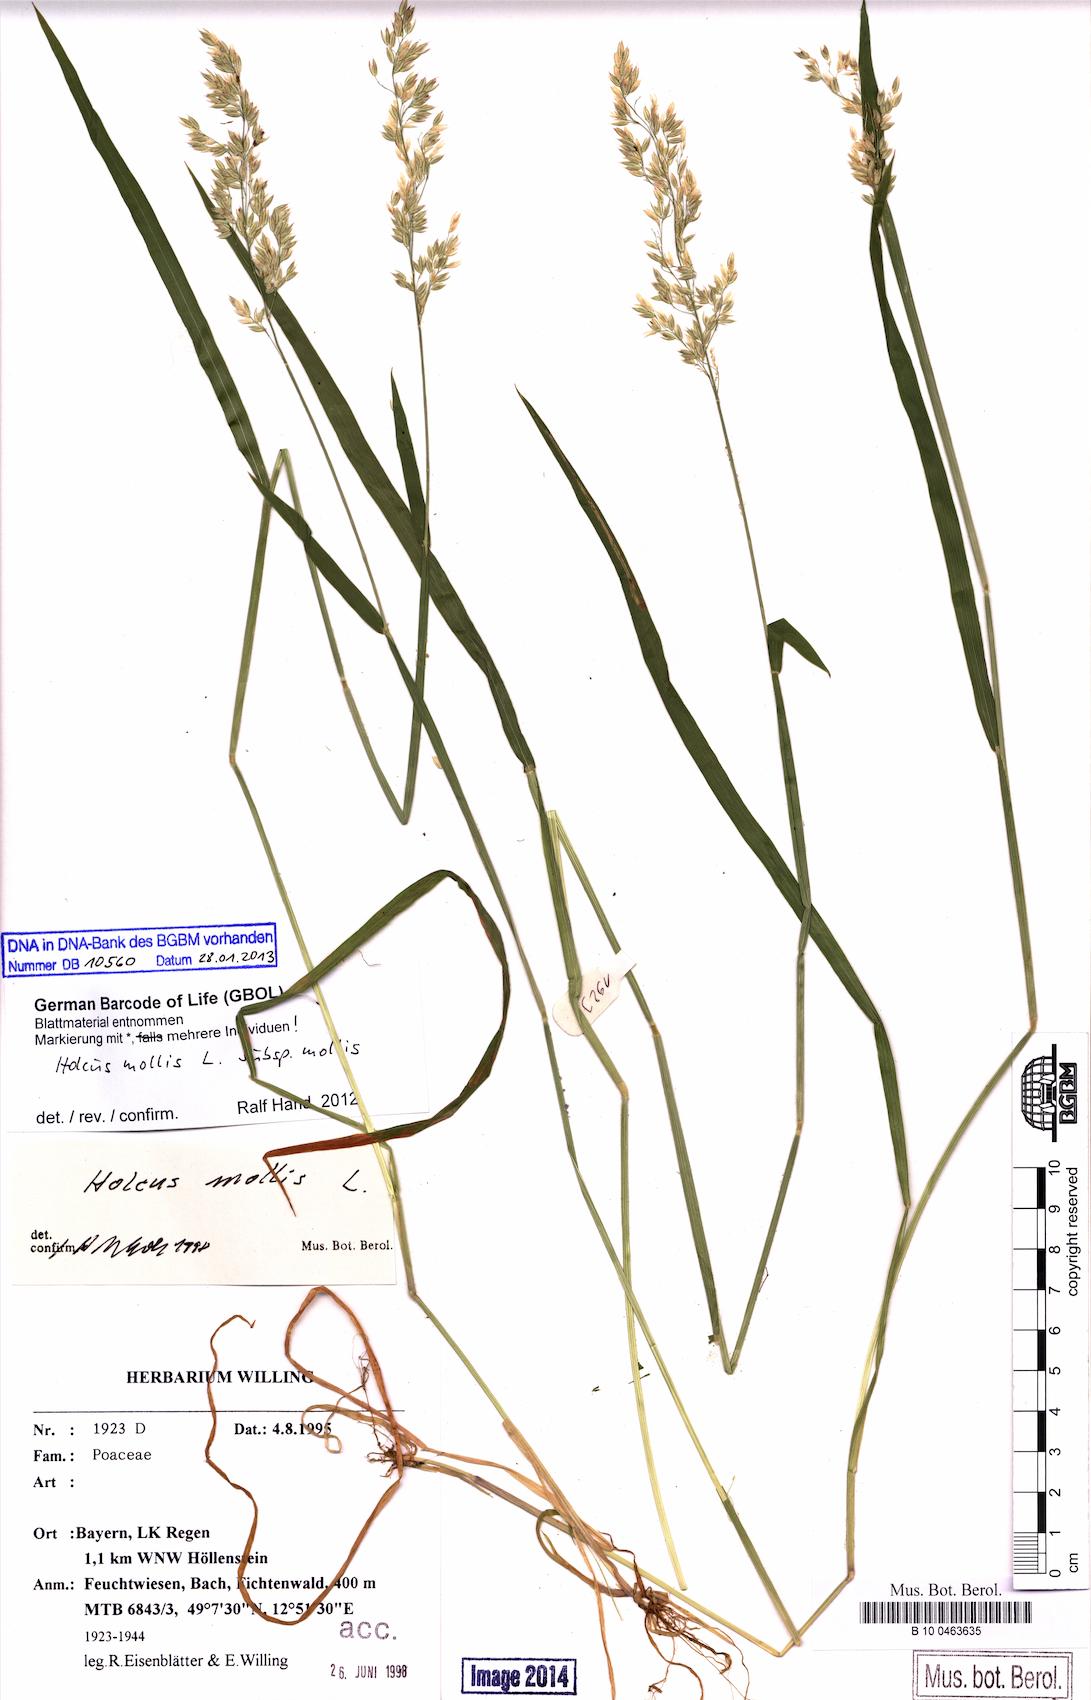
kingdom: Plantae
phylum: Tracheophyta
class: Liliopsida
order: Poales
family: Poaceae
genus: Holcus
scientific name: Holcus mollis
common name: Creeping velvetgrass
